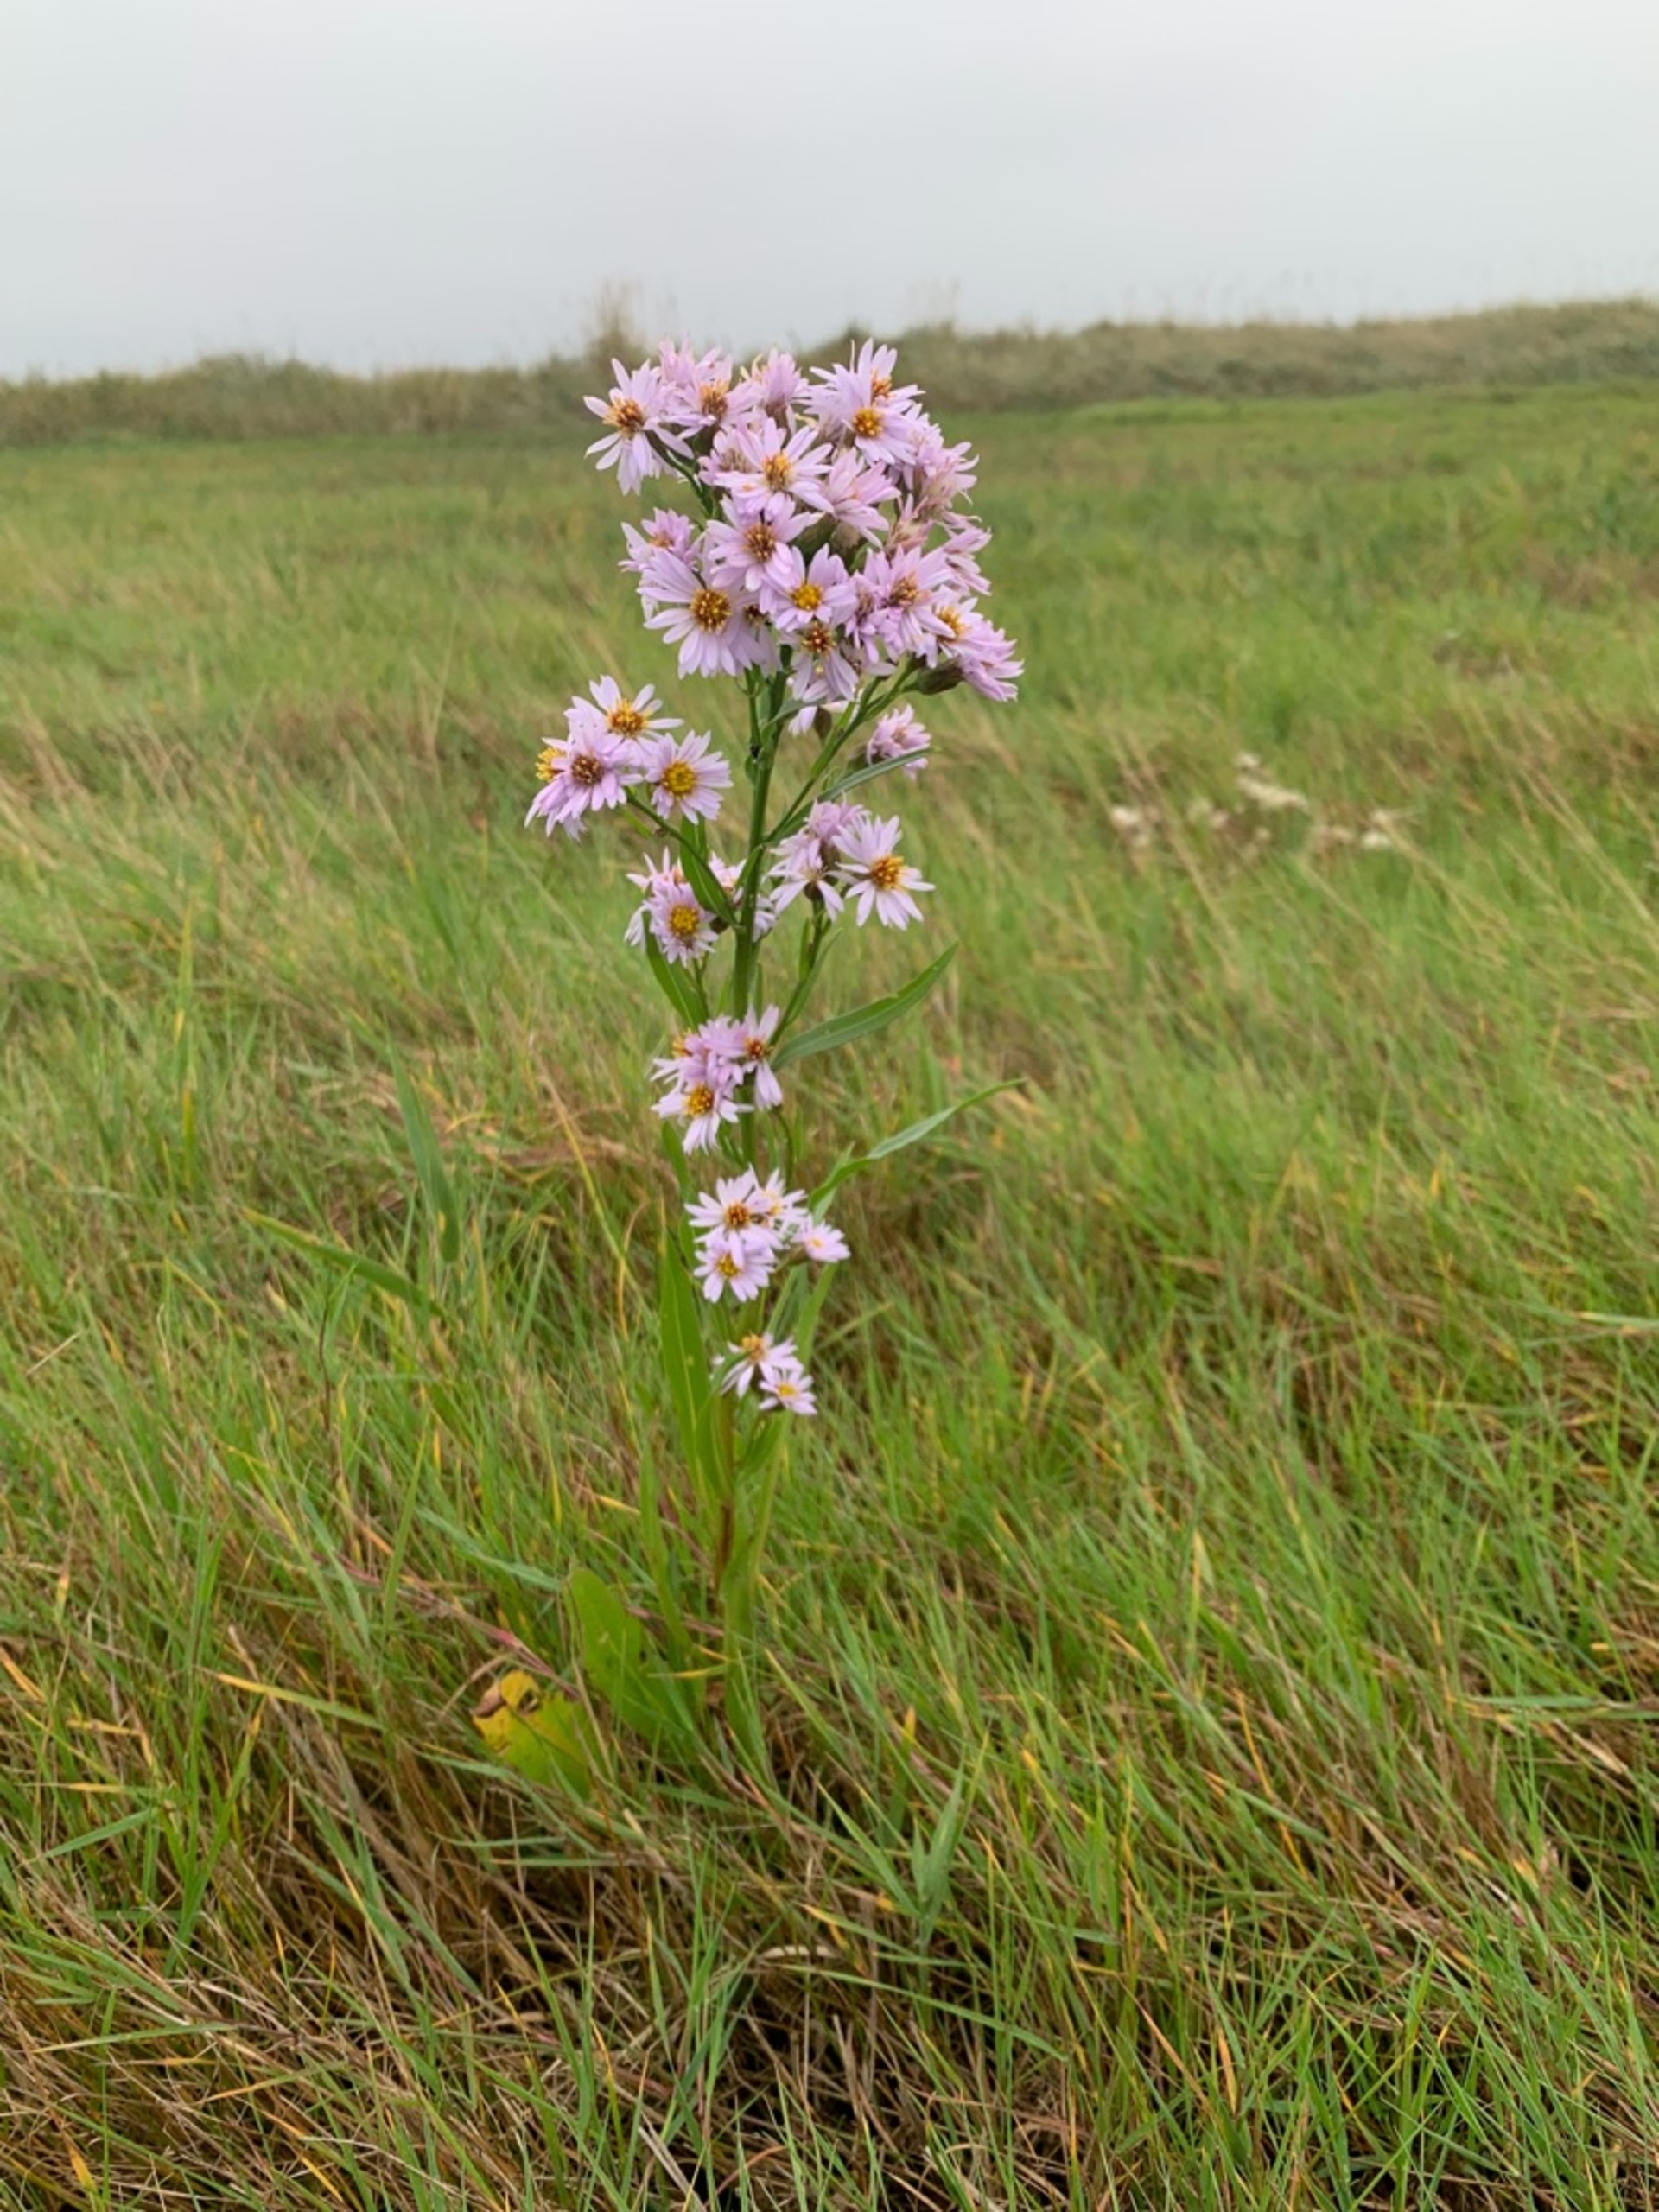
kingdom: Plantae
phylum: Tracheophyta
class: Magnoliopsida
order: Asterales
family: Asteraceae
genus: Tripolium
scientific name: Tripolium pannonicum
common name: Strandasters
